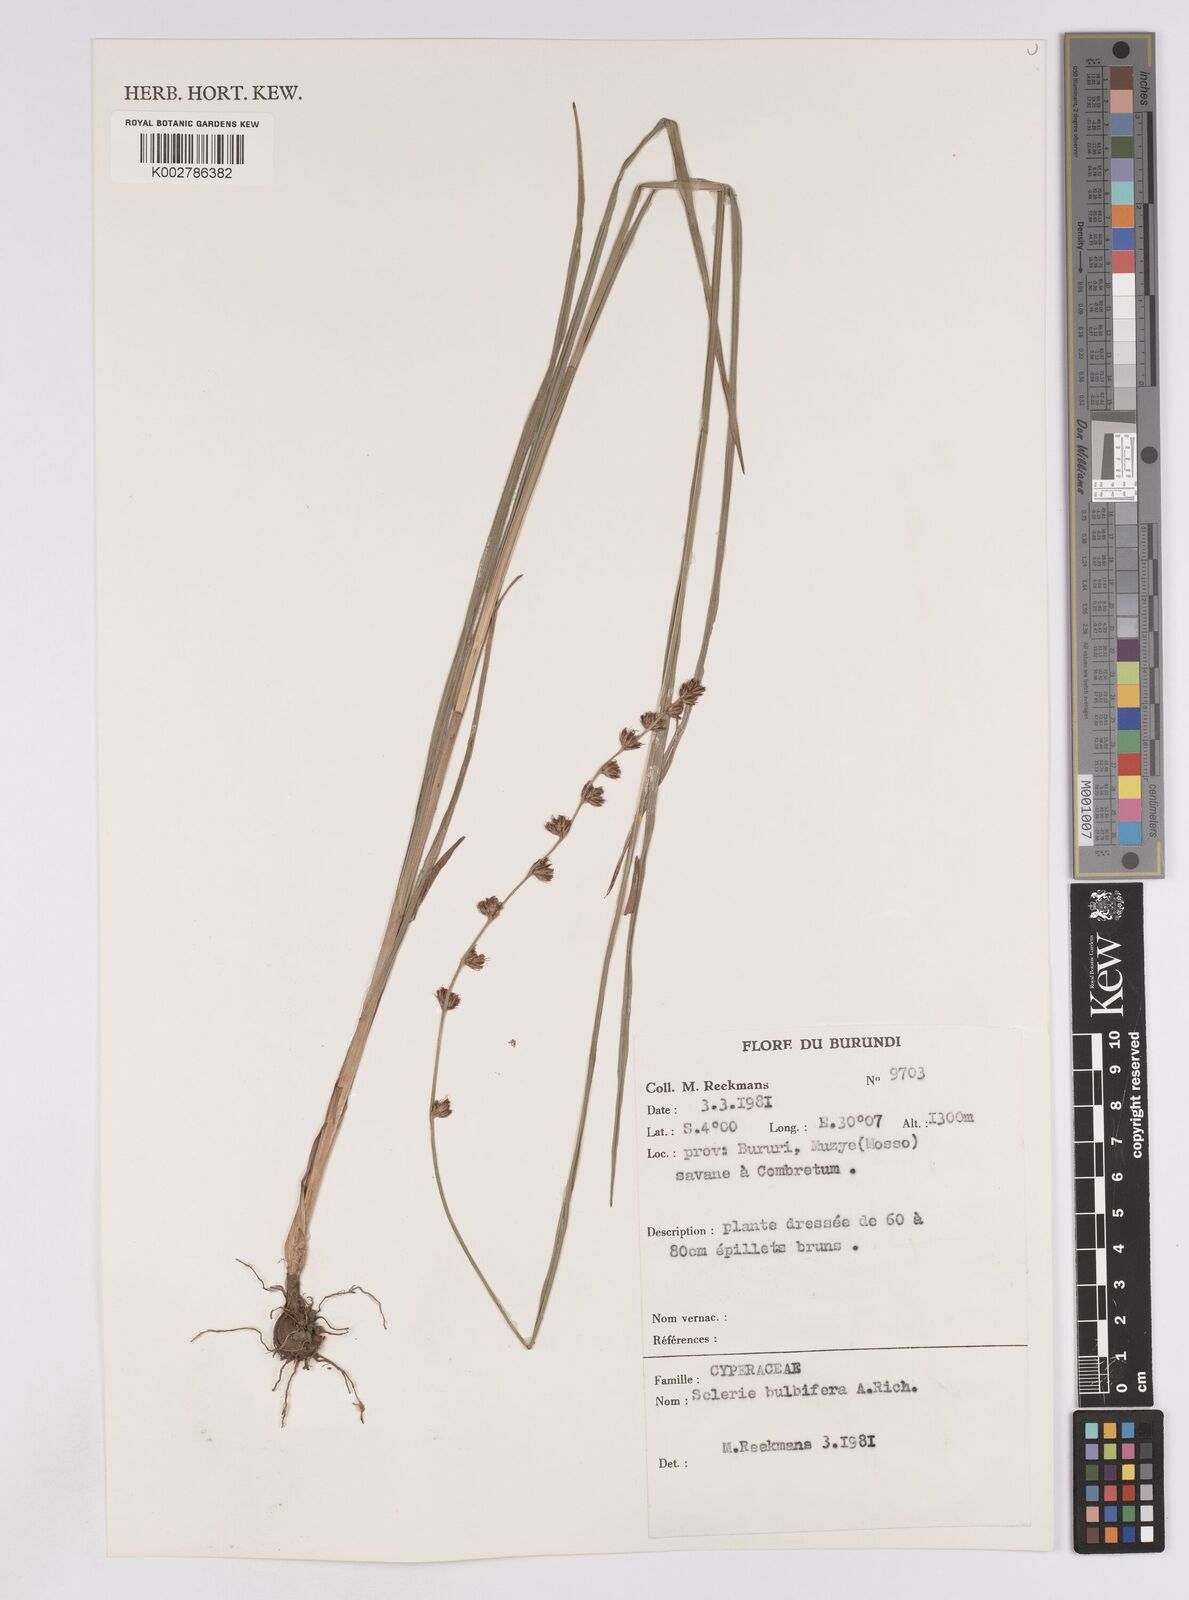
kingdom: Plantae
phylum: Tracheophyta
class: Liliopsida
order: Poales
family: Cyperaceae
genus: Scleria
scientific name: Scleria bulbifera
